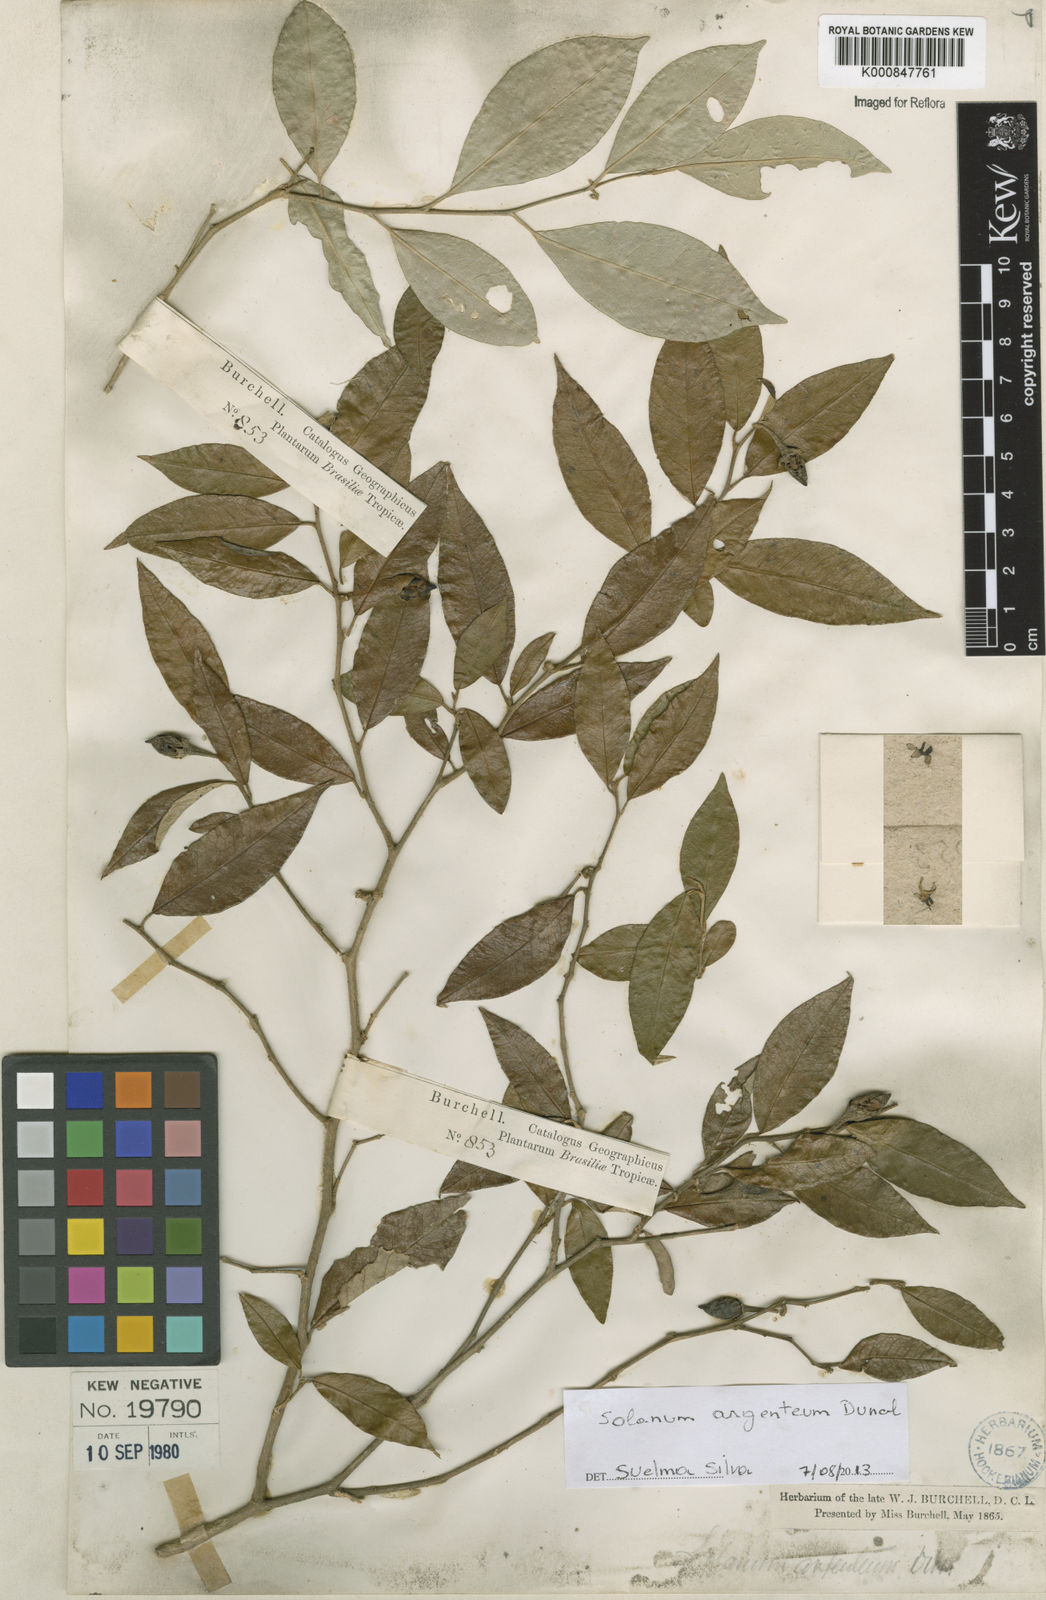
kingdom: Plantae
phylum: Tracheophyta
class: Magnoliopsida
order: Solanales
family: Solanaceae
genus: Solanum
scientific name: Solanum swartzianum
